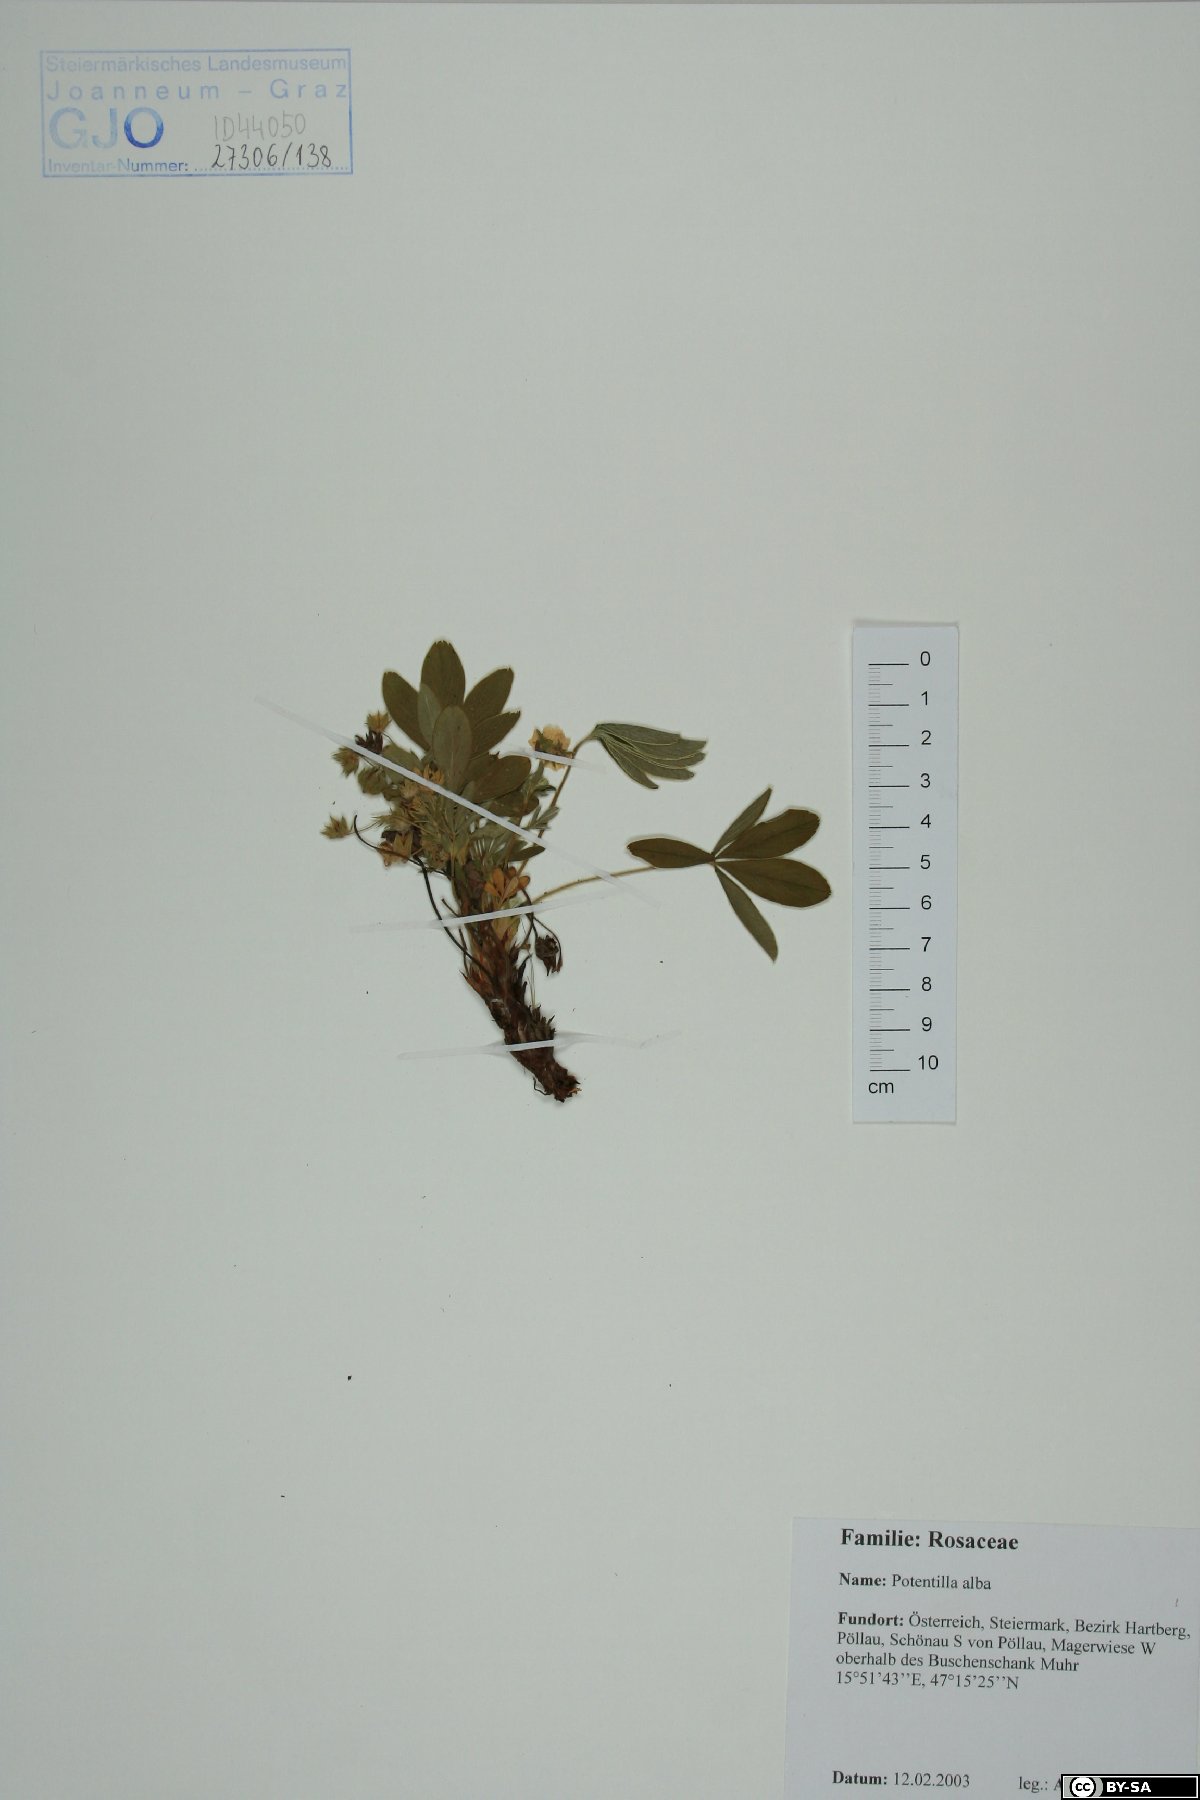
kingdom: Plantae
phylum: Tracheophyta
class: Magnoliopsida
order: Rosales
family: Rosaceae
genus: Potentilla
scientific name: Potentilla alba
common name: White cinquefoil
